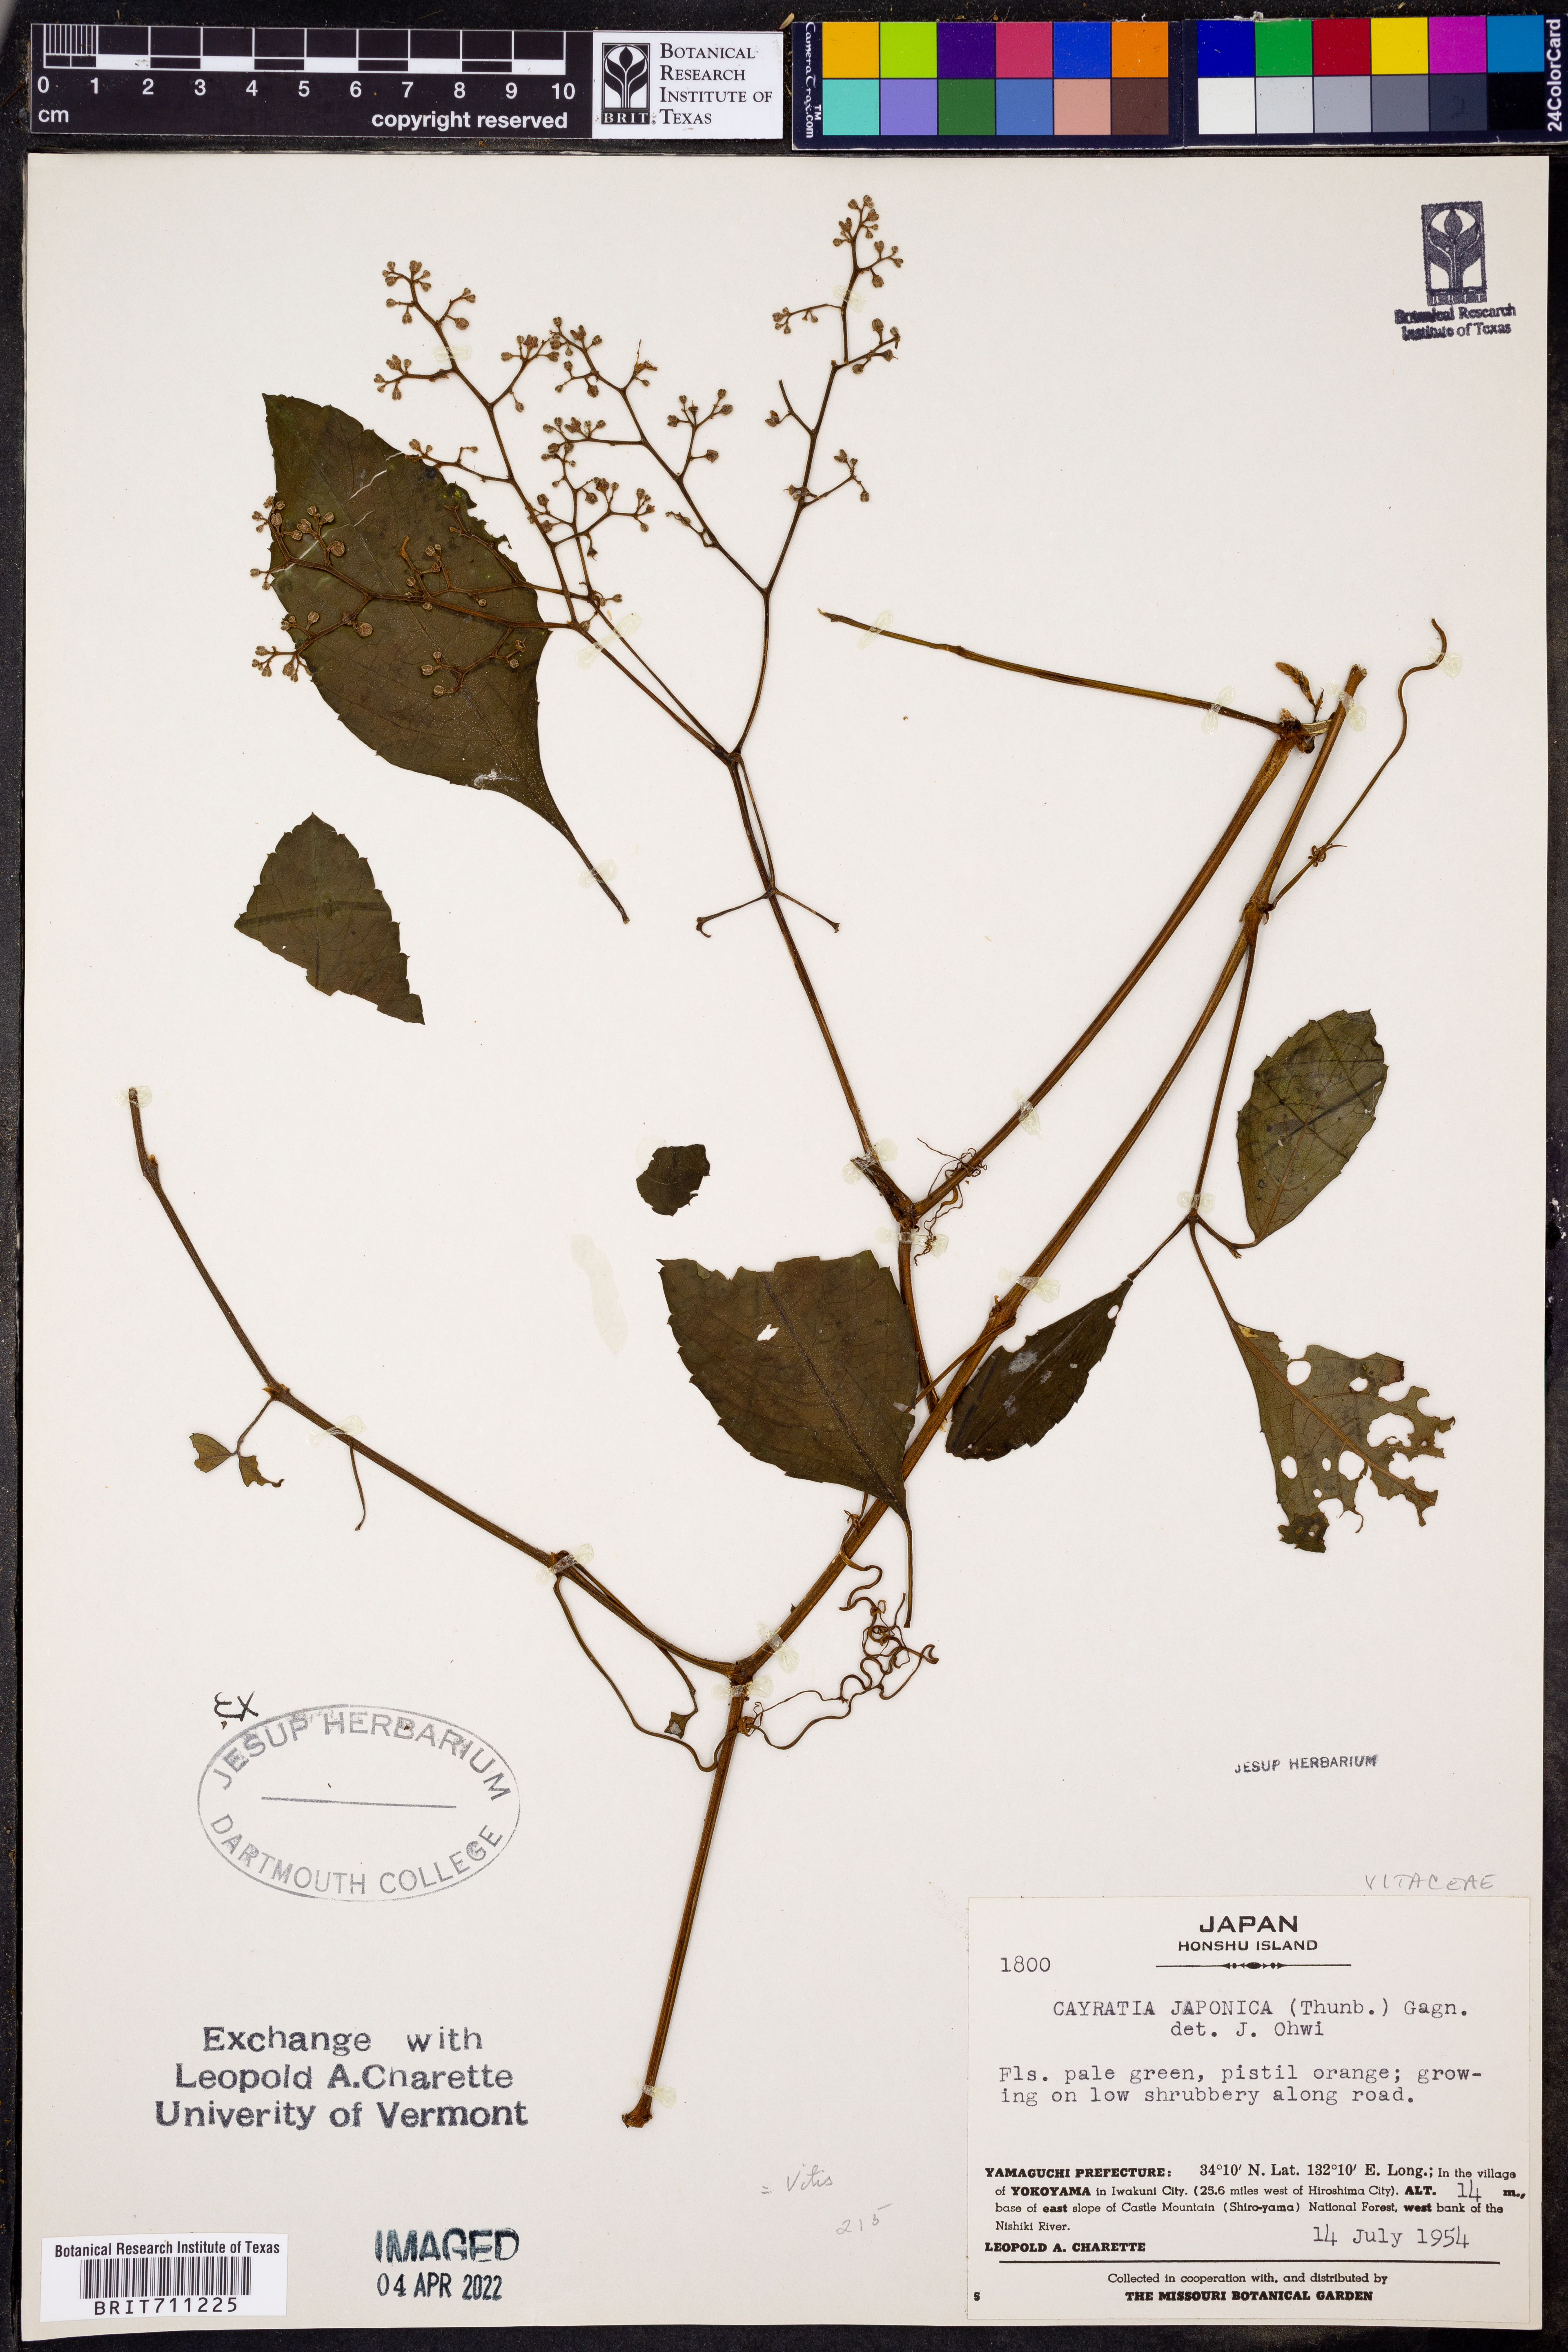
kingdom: Plantae
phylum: Tracheophyta
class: Magnoliopsida
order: Vitales
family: Vitaceae
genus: Causonis
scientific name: Causonis japonica
